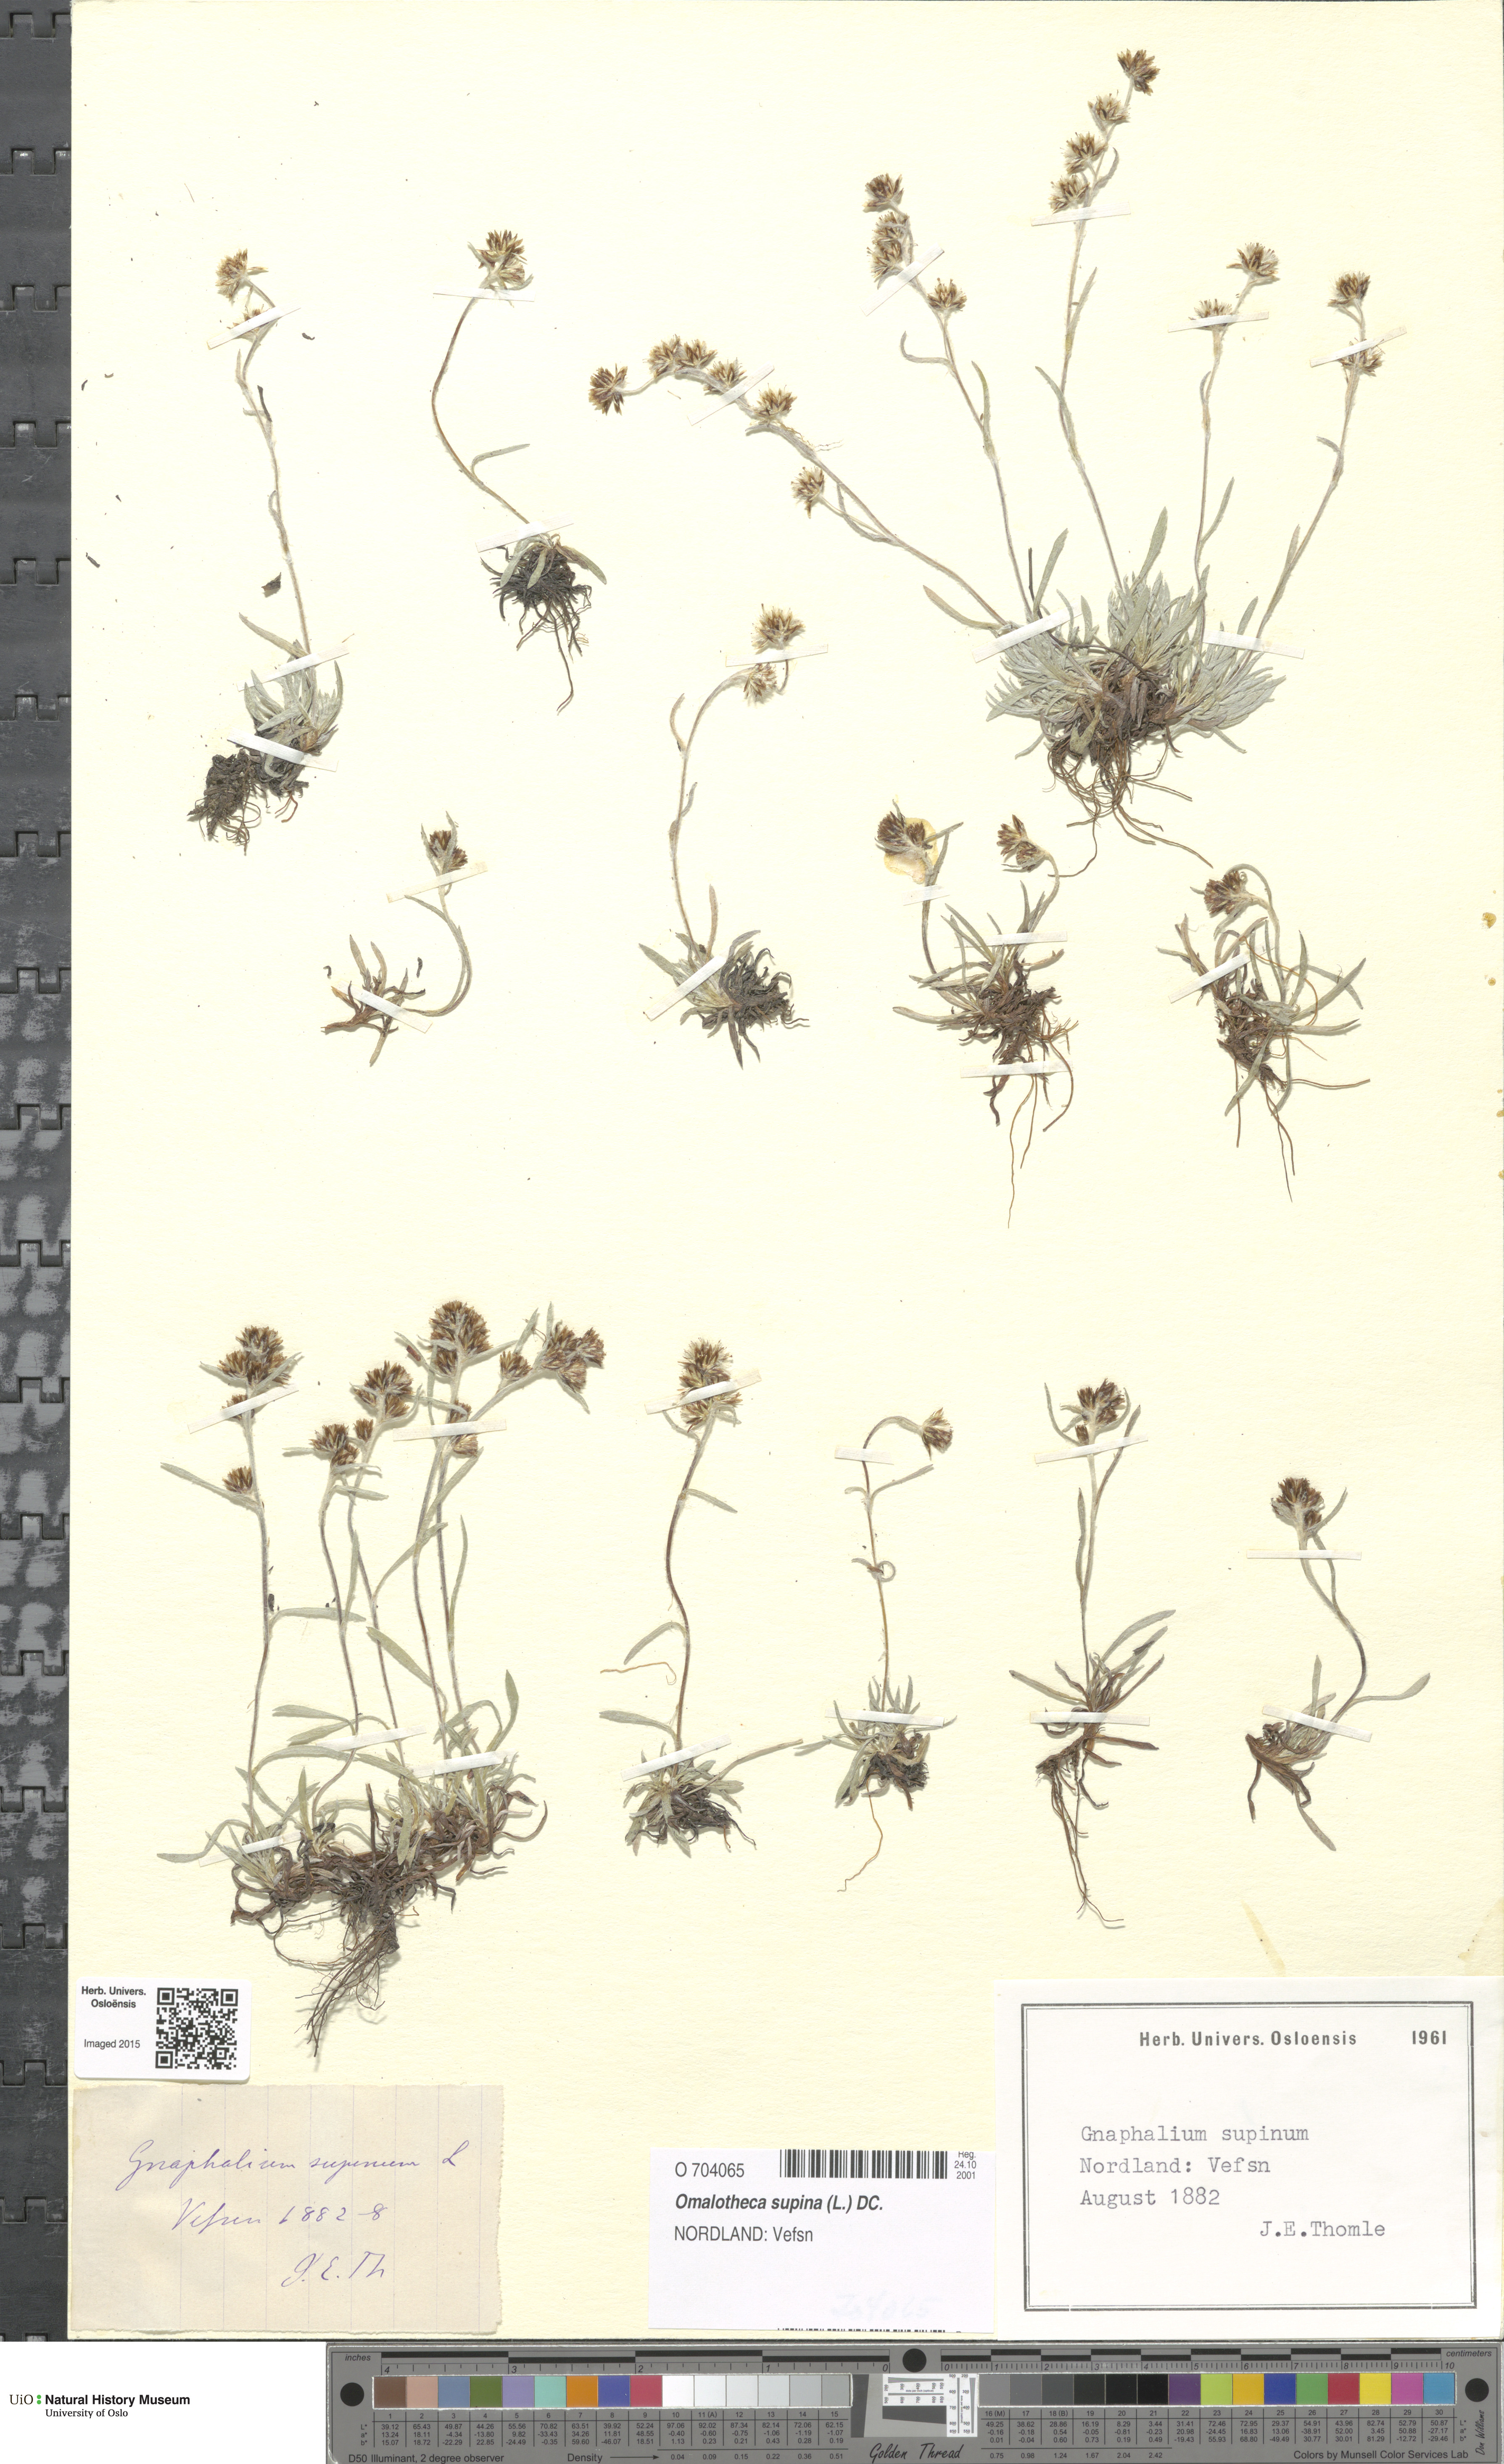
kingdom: Plantae
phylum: Tracheophyta
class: Magnoliopsida
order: Asterales
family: Asteraceae
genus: Omalotheca
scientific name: Omalotheca supina
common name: Alpine arctic-cudweed
